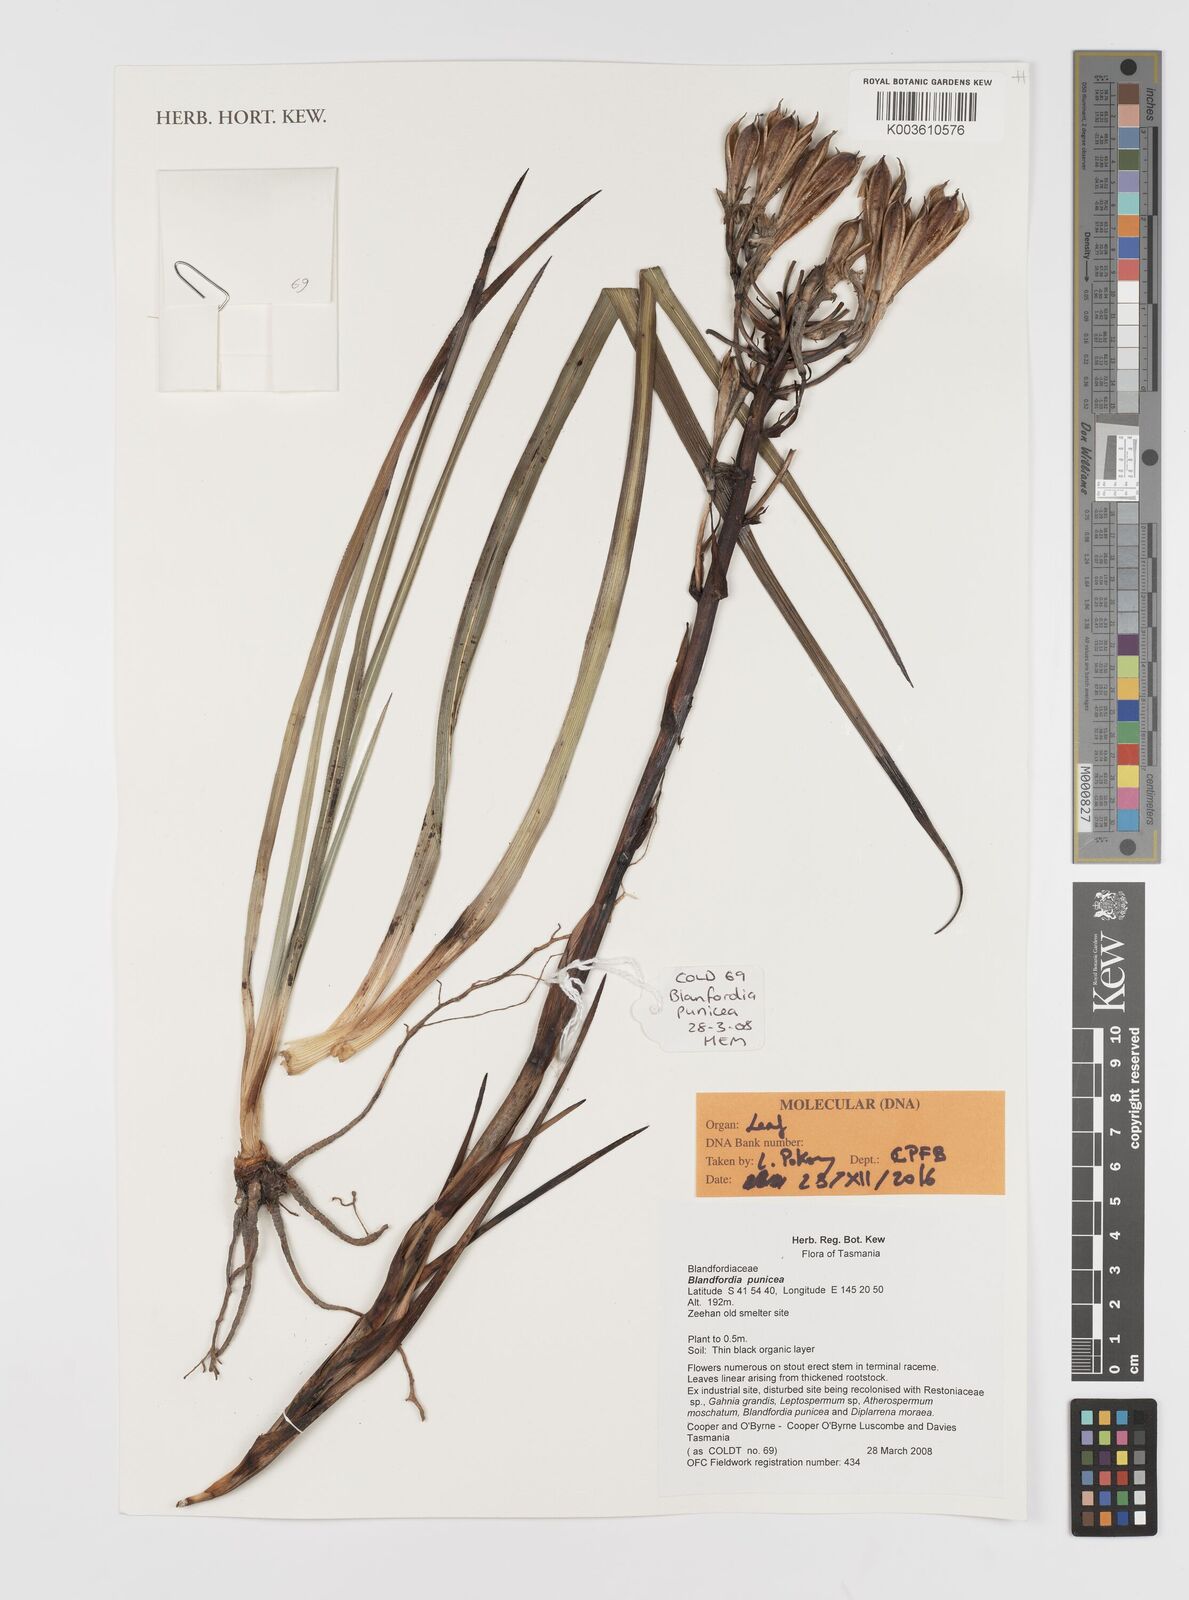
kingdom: Plantae
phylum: Tracheophyta
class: Liliopsida
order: Asparagales
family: Blandfordiaceae
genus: Blandfordia
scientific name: Blandfordia punicea
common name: Tasmanian christmas-bell
